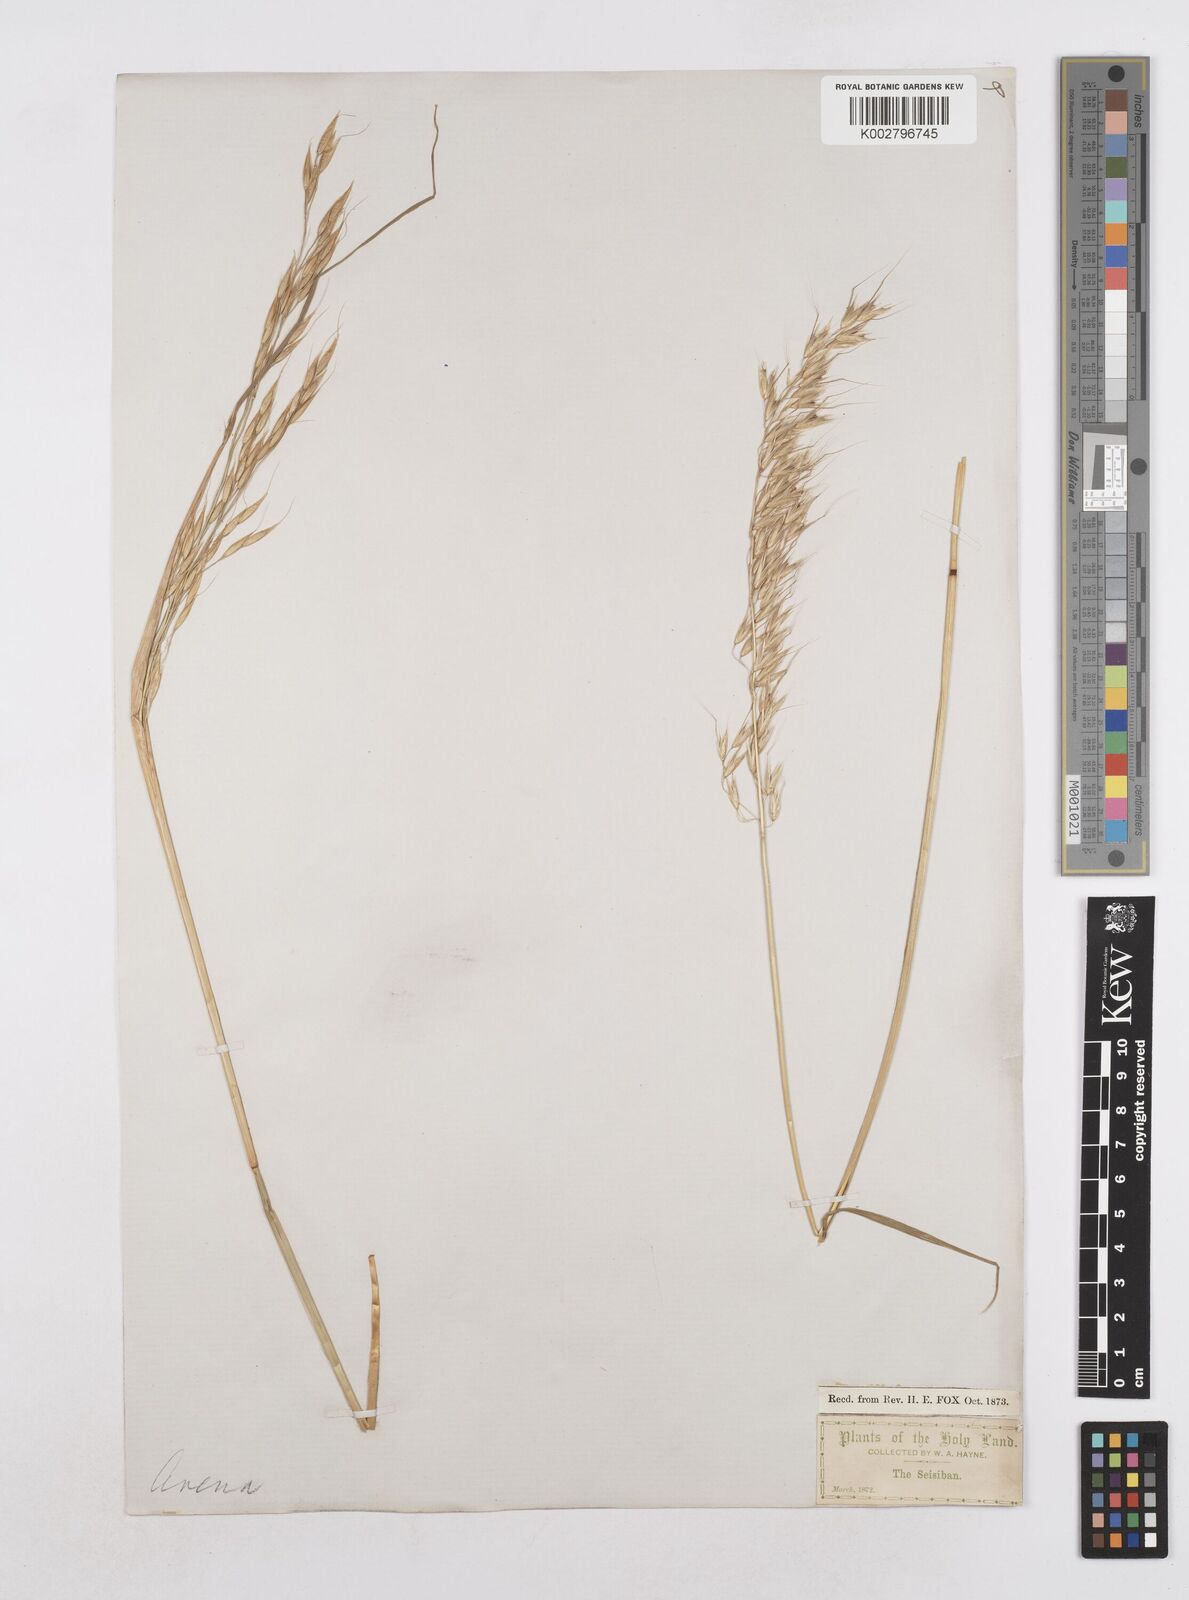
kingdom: Plantae
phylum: Tracheophyta
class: Liliopsida
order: Poales
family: Poaceae
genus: Arrhenatherum
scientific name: Arrhenatherum elatius
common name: Tall oatgrass
